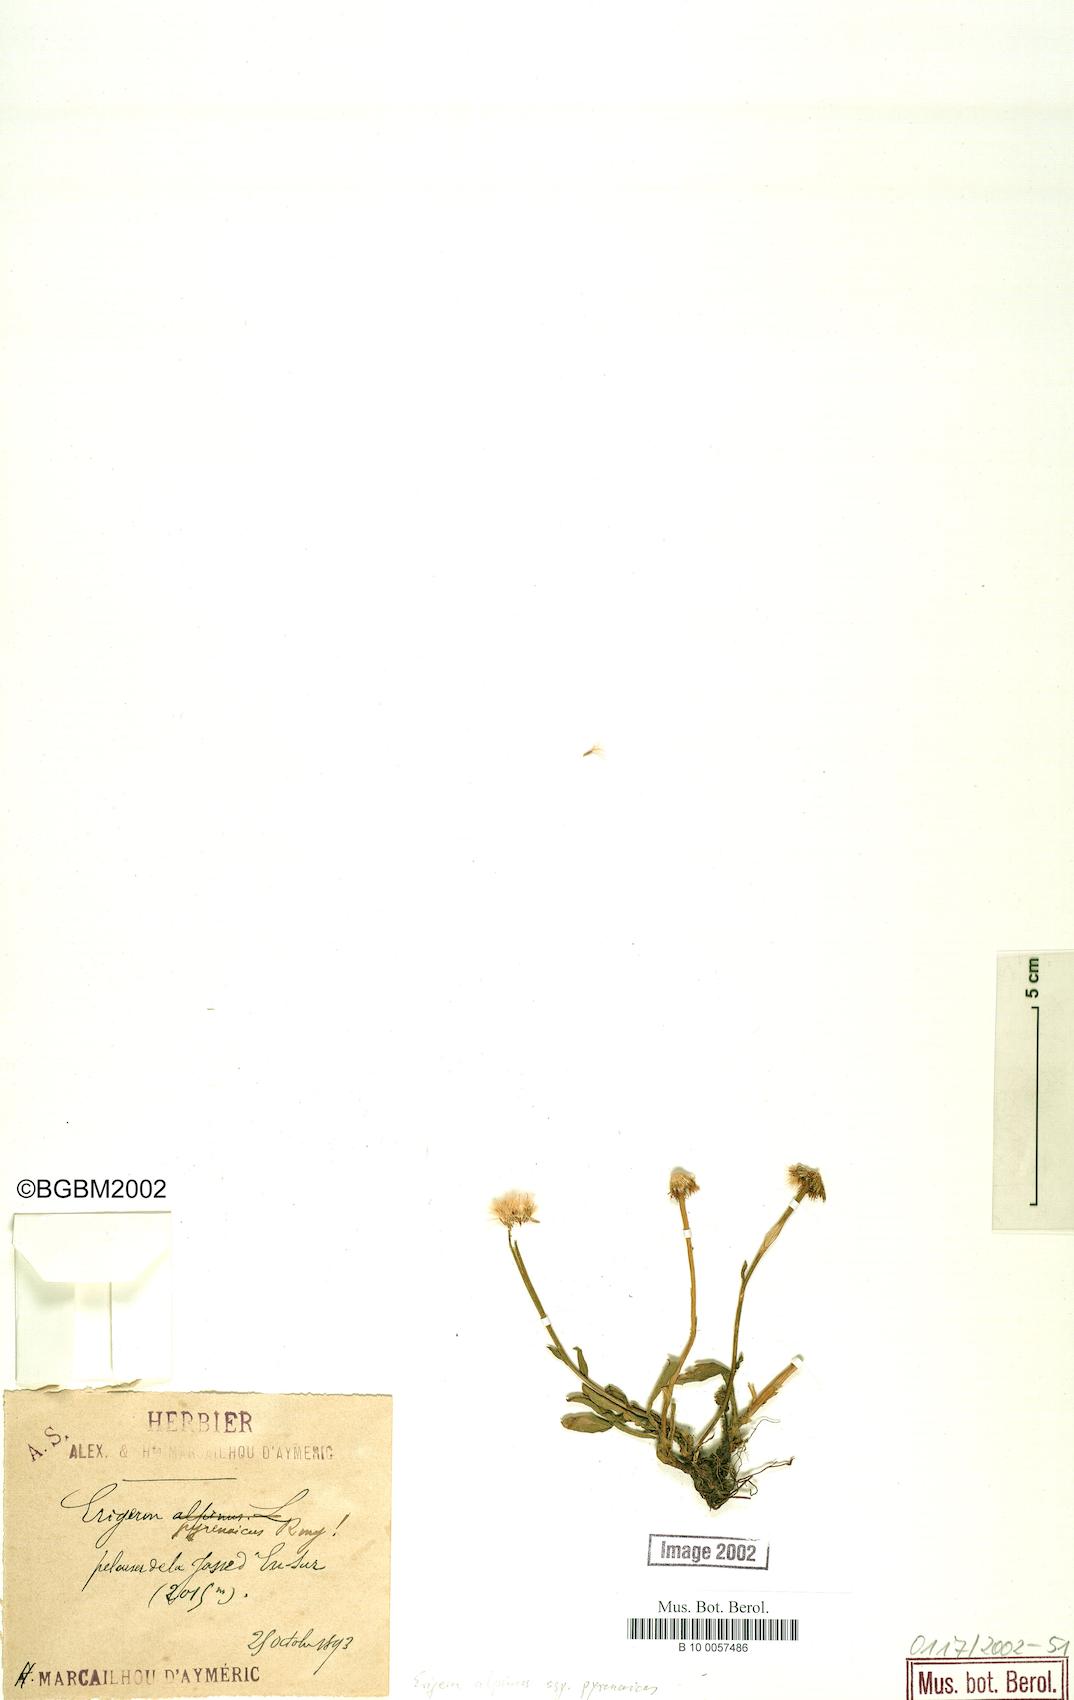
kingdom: Plantae
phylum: Tracheophyta
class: Magnoliopsida
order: Asterales
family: Asteraceae
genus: Erigeron
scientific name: Erigeron uniflorus
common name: Northern daisy
